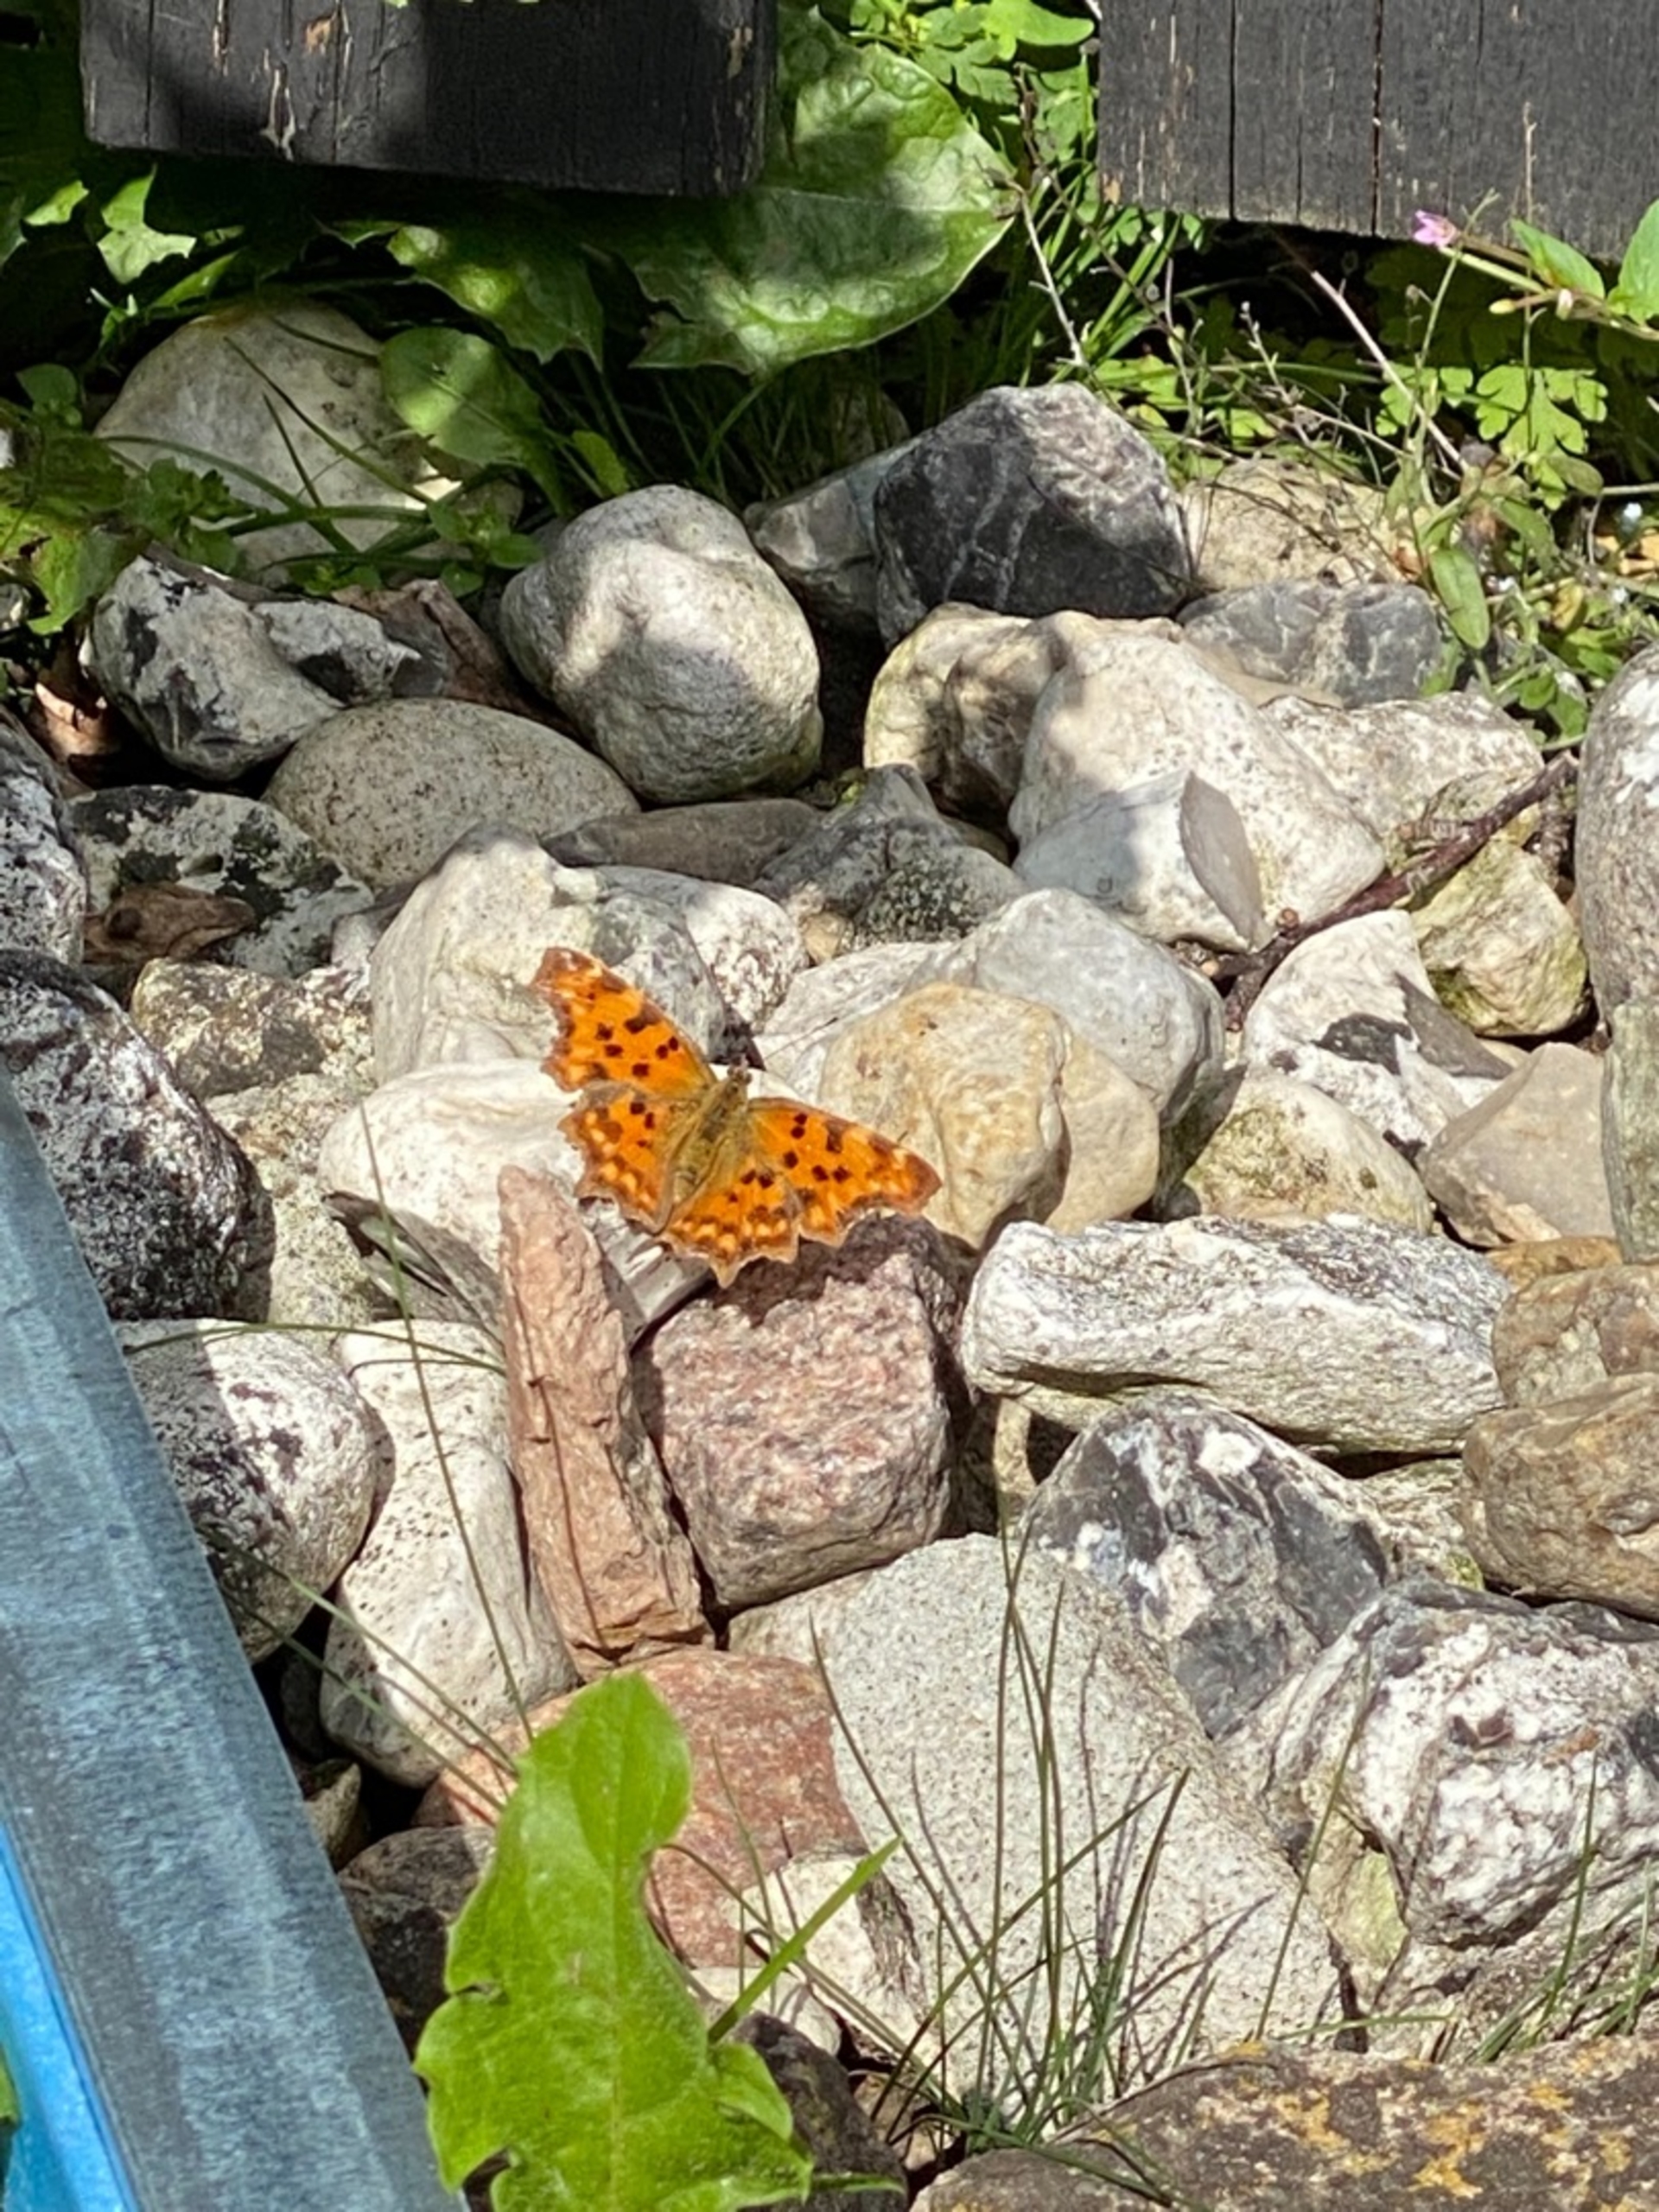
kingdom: Animalia
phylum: Arthropoda
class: Insecta
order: Lepidoptera
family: Nymphalidae
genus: Polygonia
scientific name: Polygonia c-album
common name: Det hvide C
